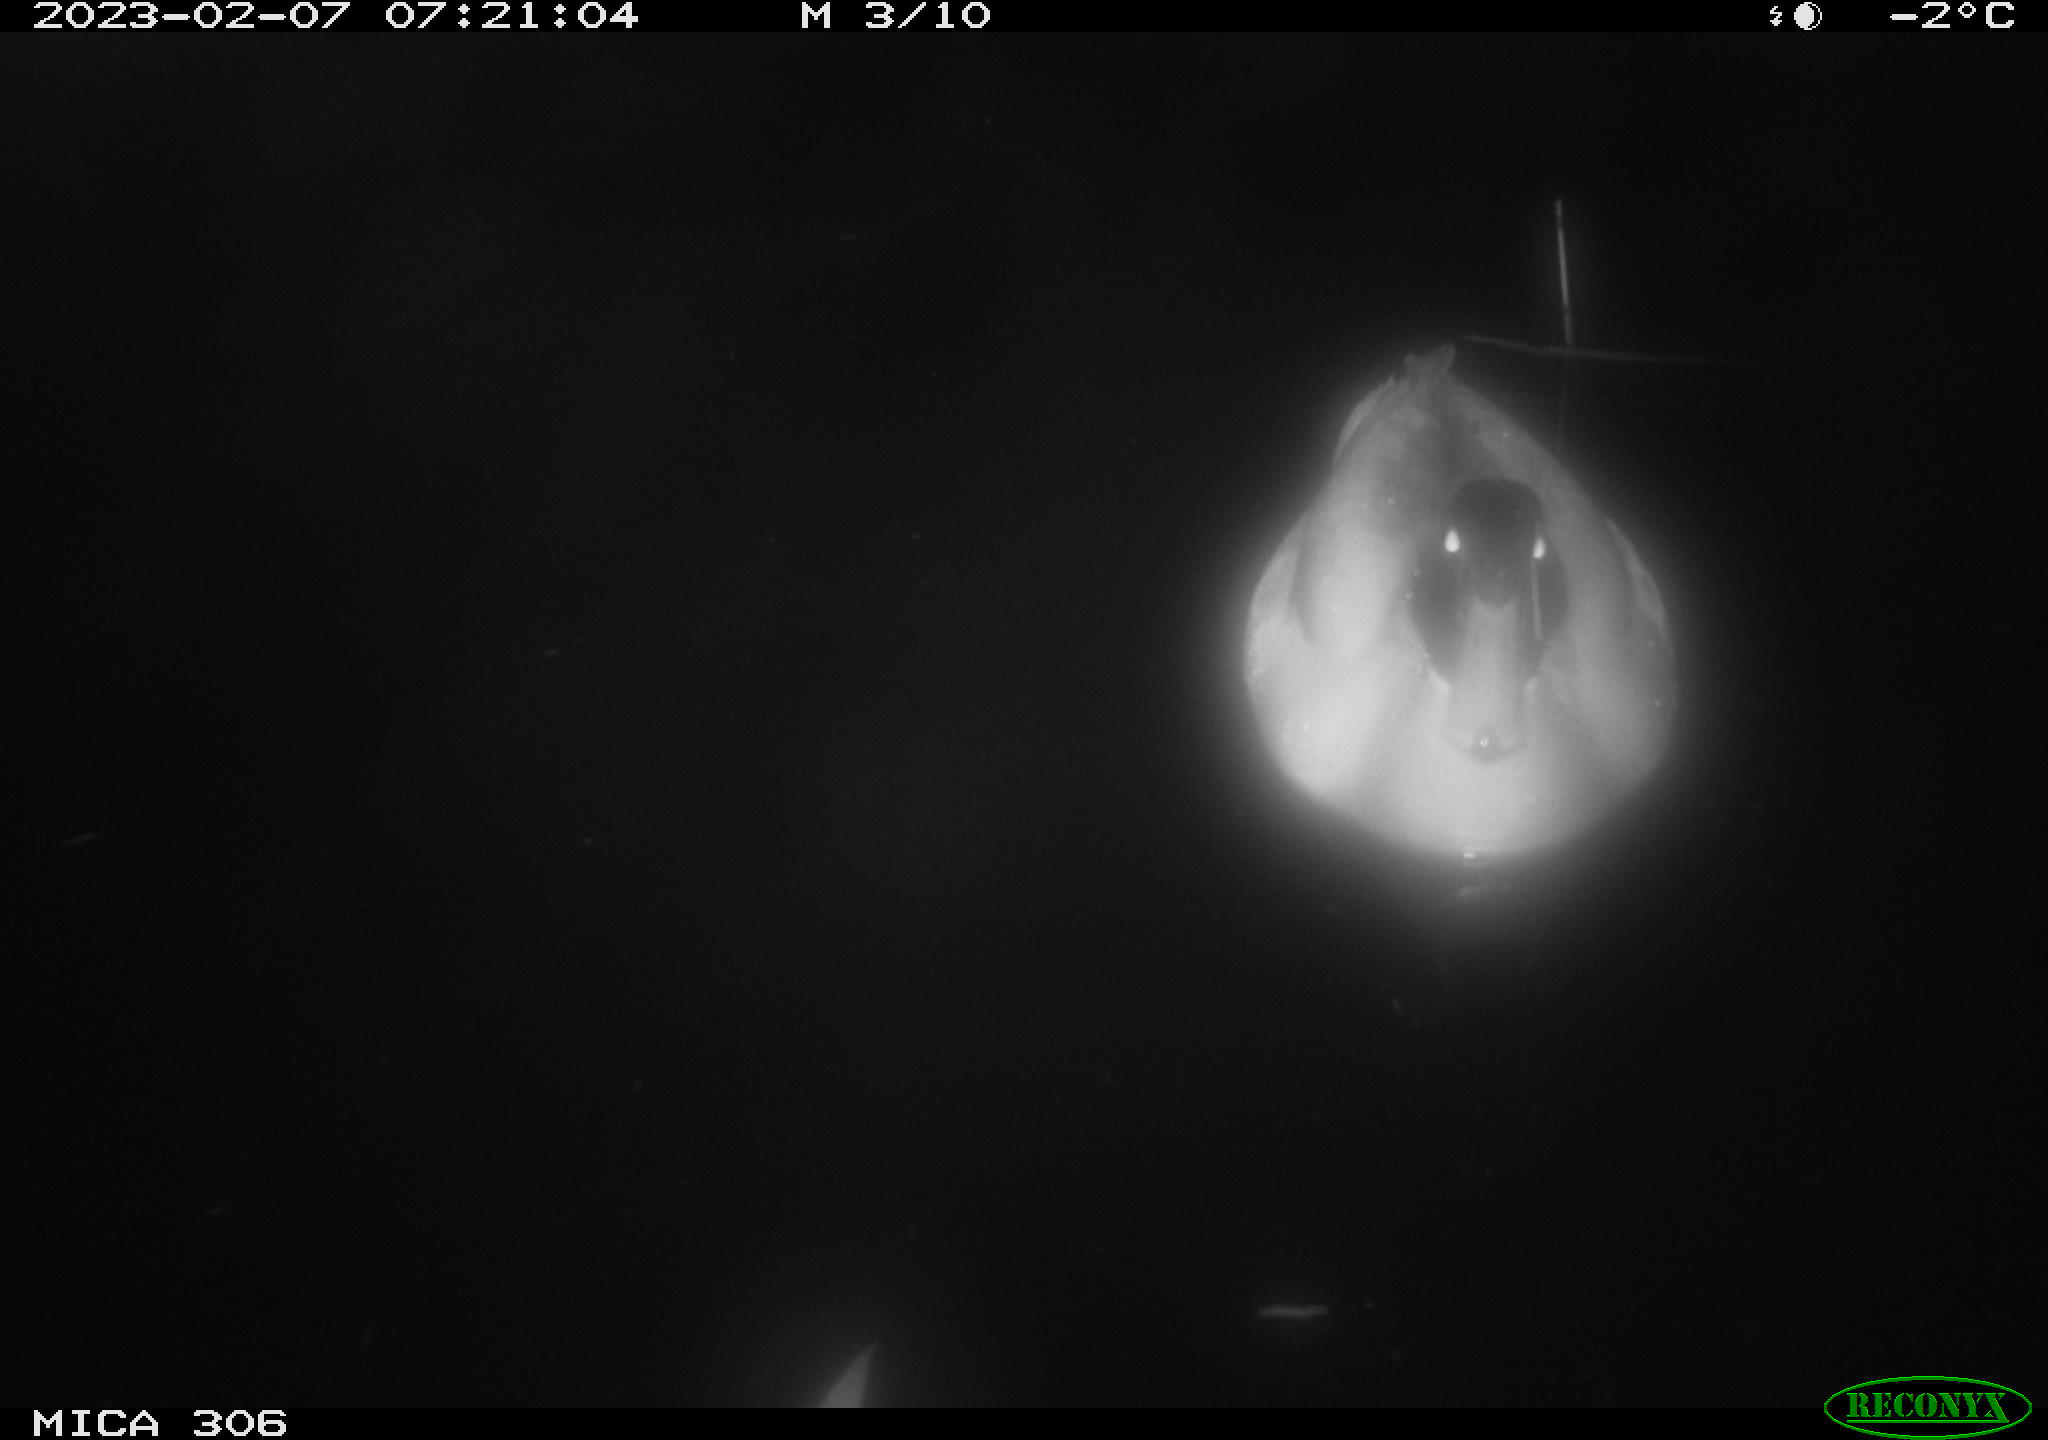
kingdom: Animalia
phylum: Chordata
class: Aves
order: Anseriformes
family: Anatidae
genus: Anas
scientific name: Anas
